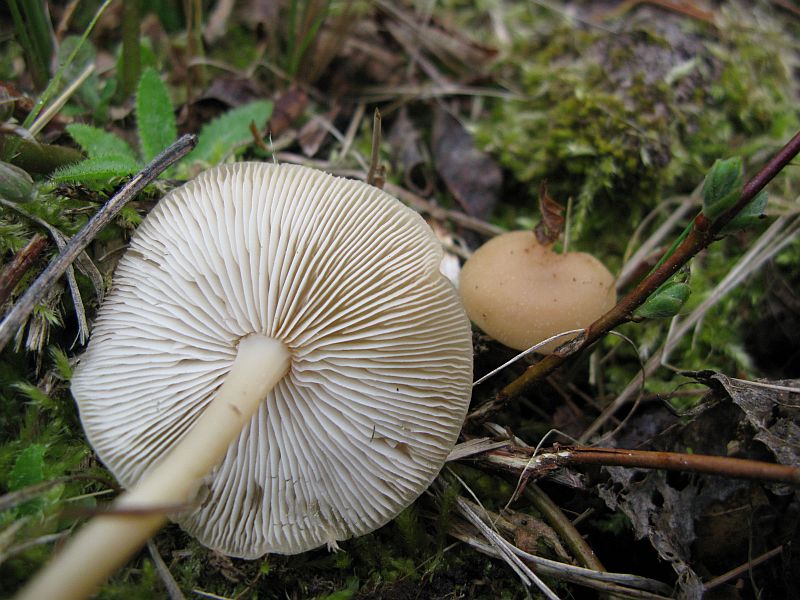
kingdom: Fungi
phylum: Basidiomycota
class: Agaricomycetes
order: Agaricales
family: Omphalotaceae
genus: Gymnopus
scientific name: Gymnopus aquosus
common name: bleg fladhat
